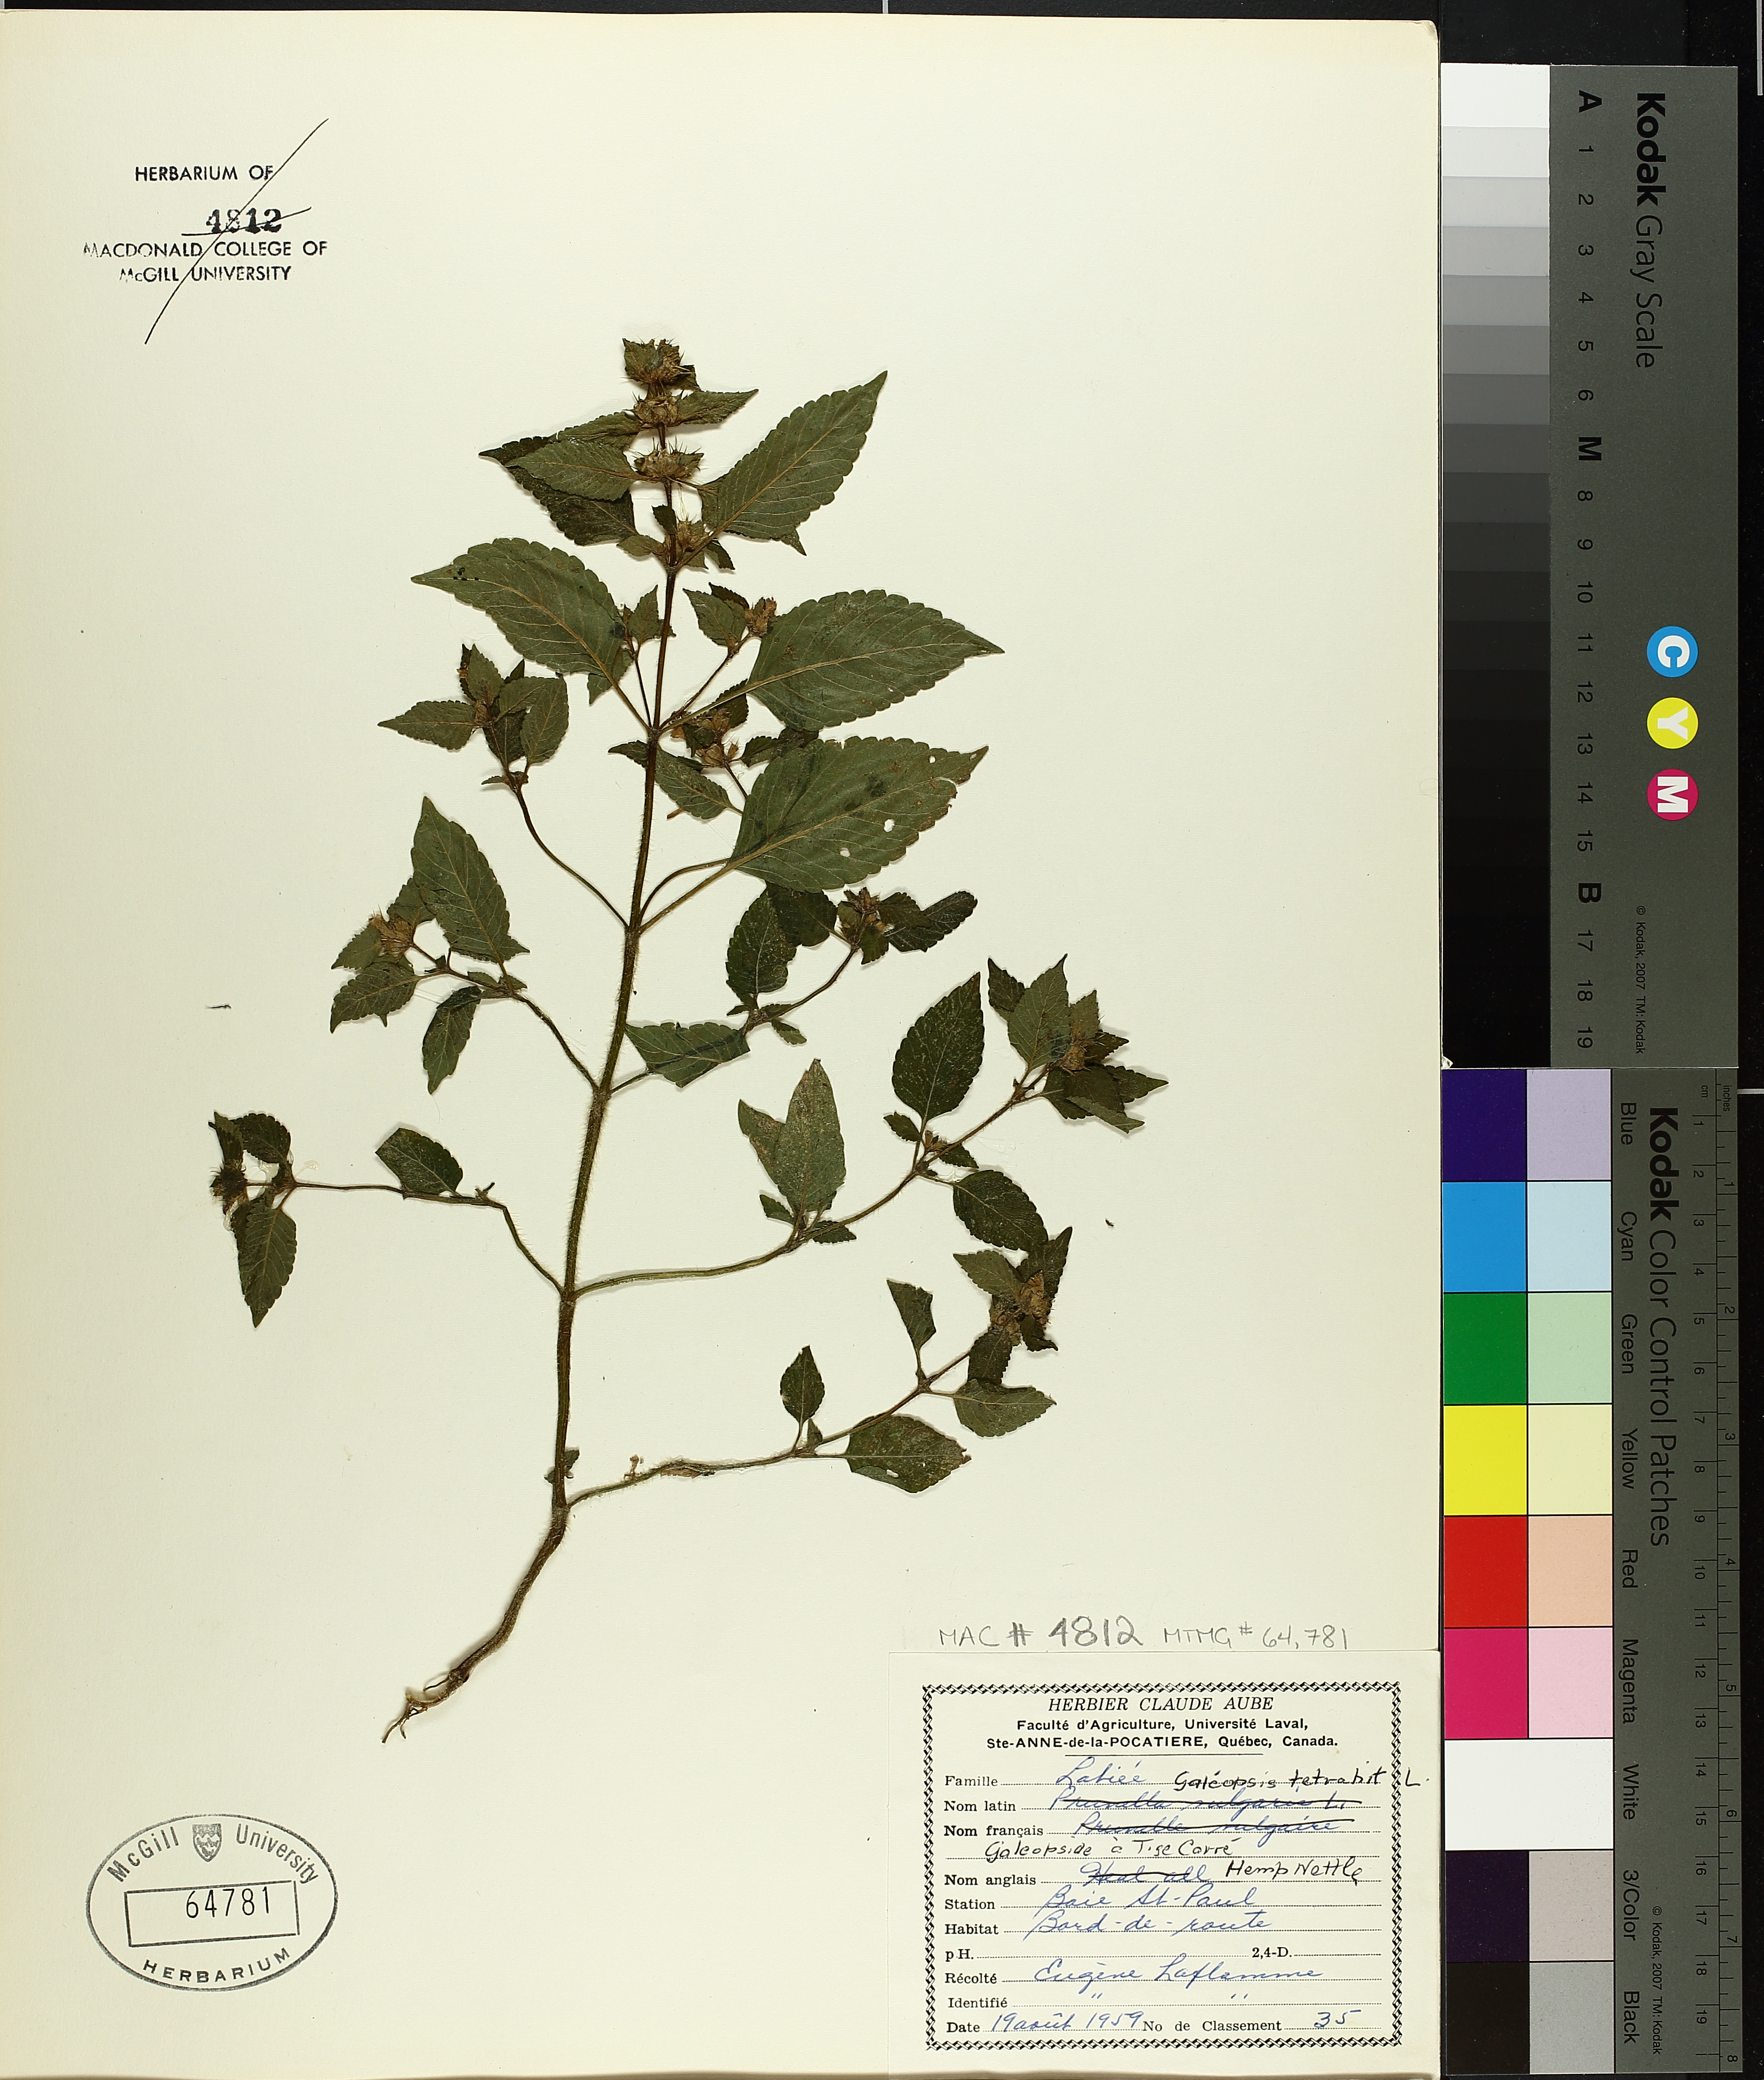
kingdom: Plantae
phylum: Tracheophyta
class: Magnoliopsida
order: Lamiales
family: Lamiaceae
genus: Galeopsis
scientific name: Galeopsis tetrahit
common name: Common hemp-nettle
